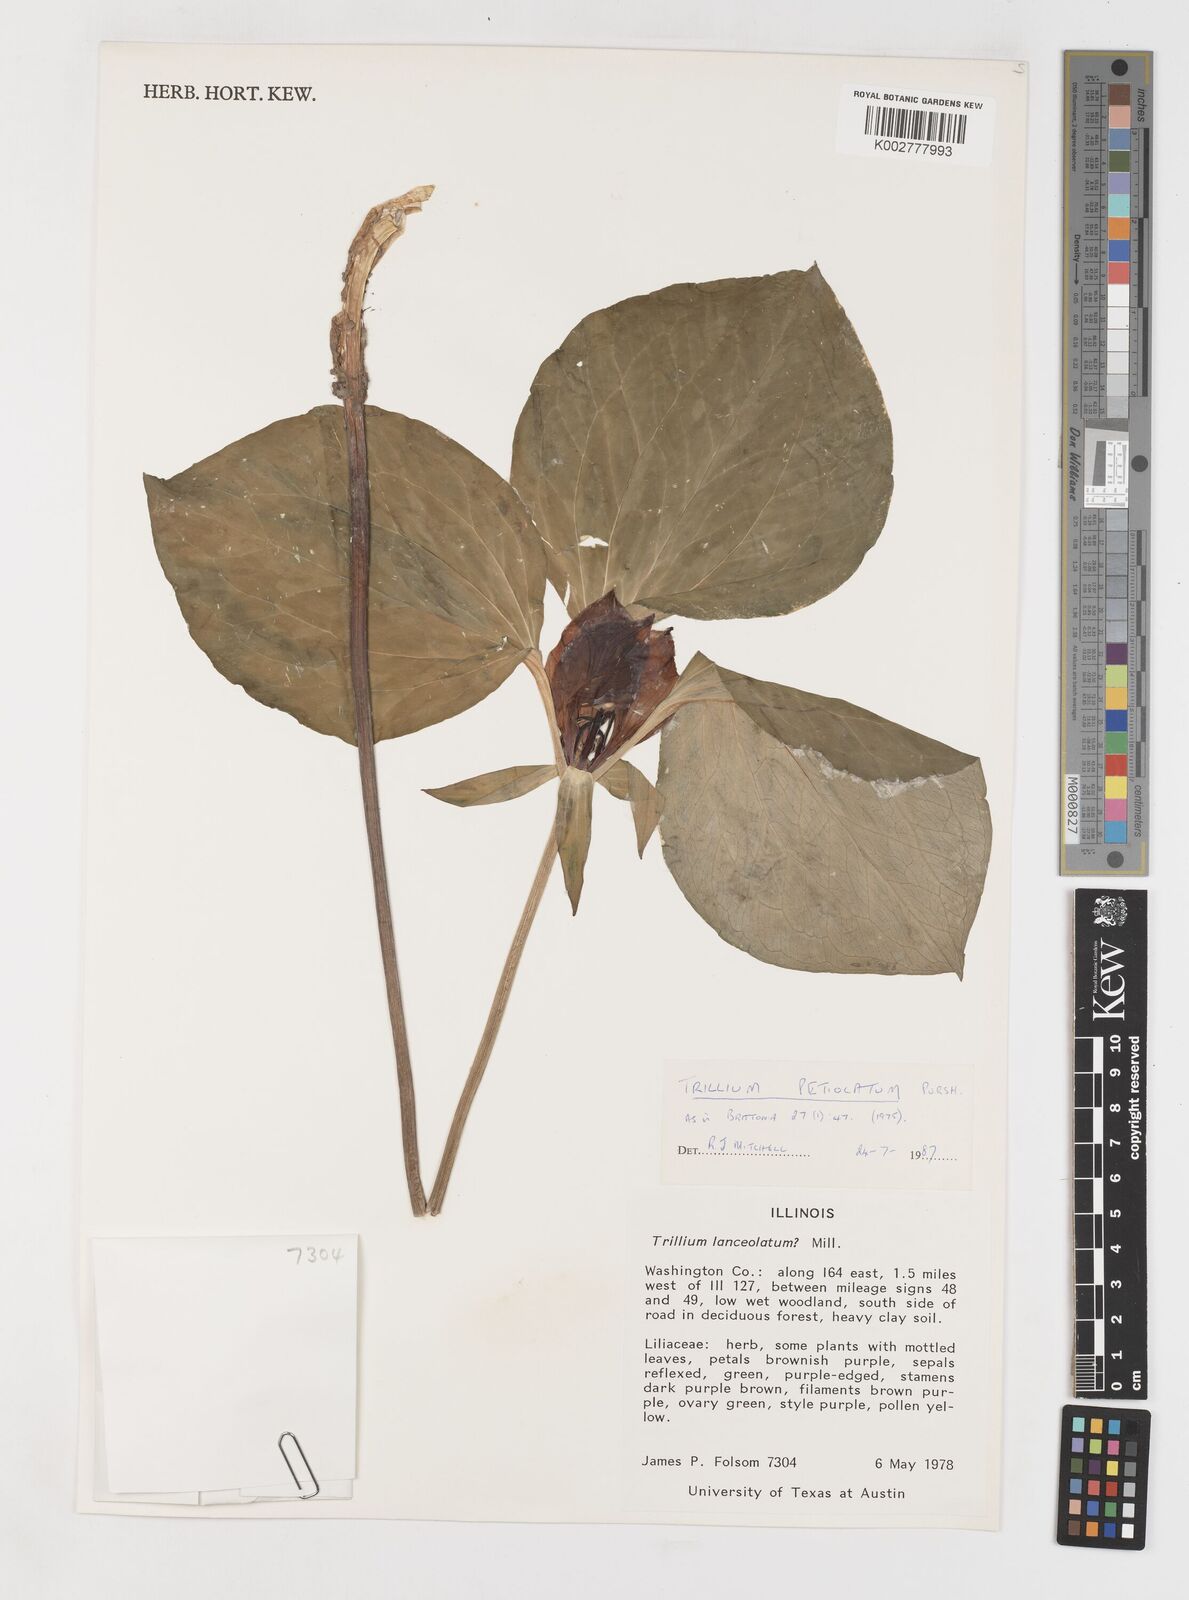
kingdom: Plantae
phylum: Tracheophyta
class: Liliopsida
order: Liliales
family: Melanthiaceae
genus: Trillium
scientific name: Trillium petiolatum
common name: Idaho trillium
